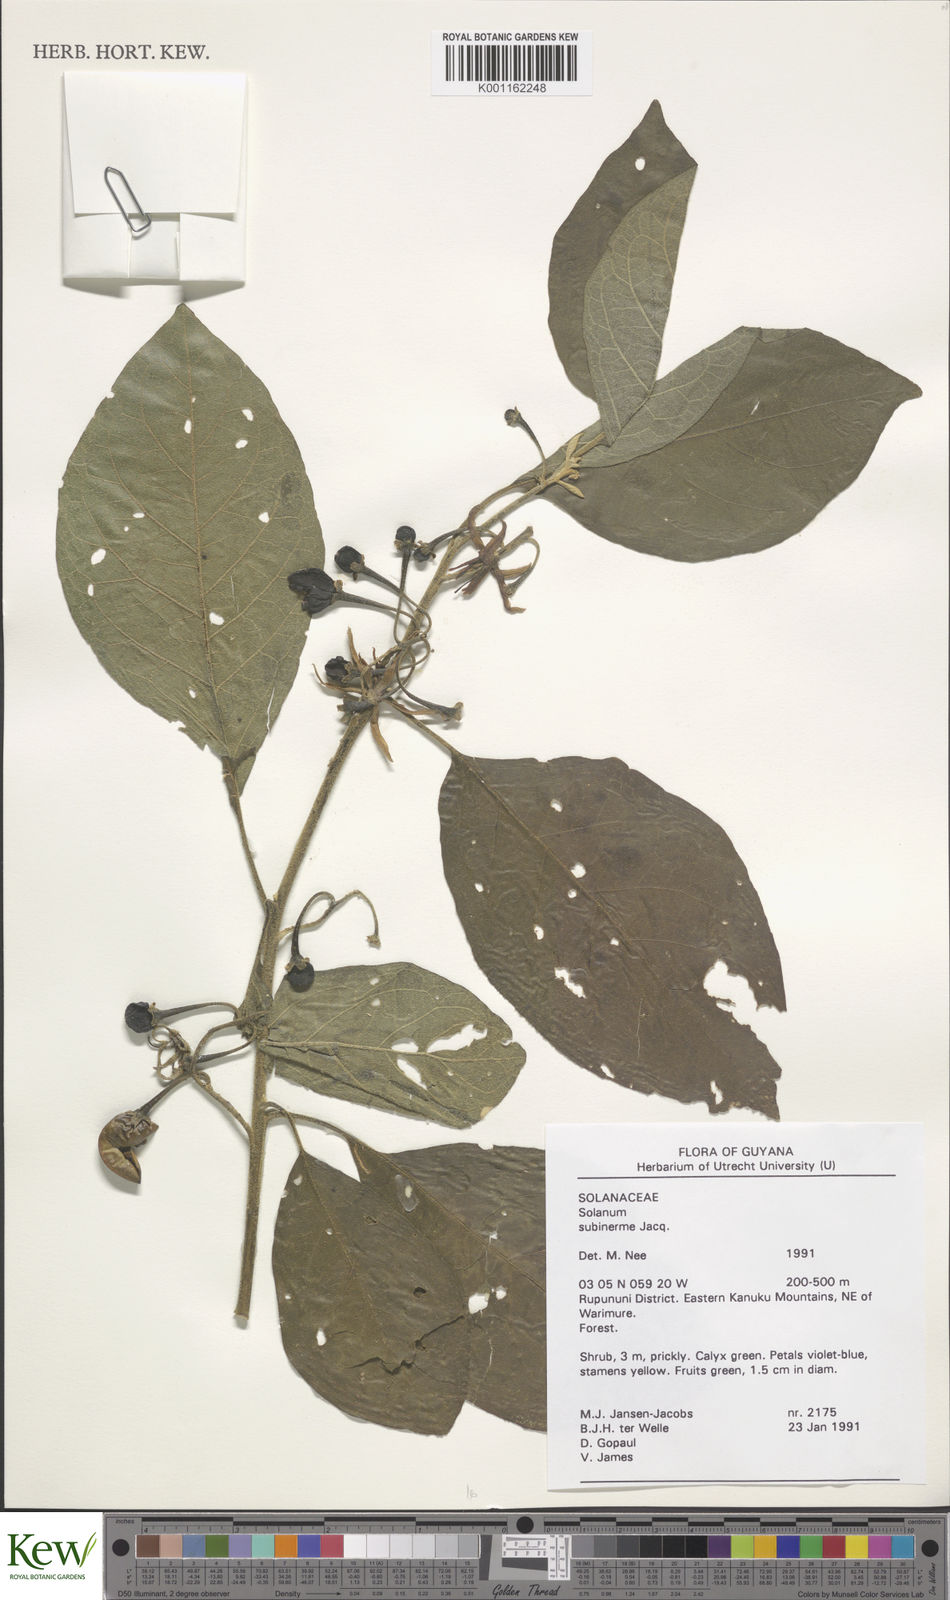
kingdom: Plantae
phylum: Tracheophyta
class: Magnoliopsida
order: Solanales
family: Solanaceae
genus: Solanum
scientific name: Solanum subinerme
